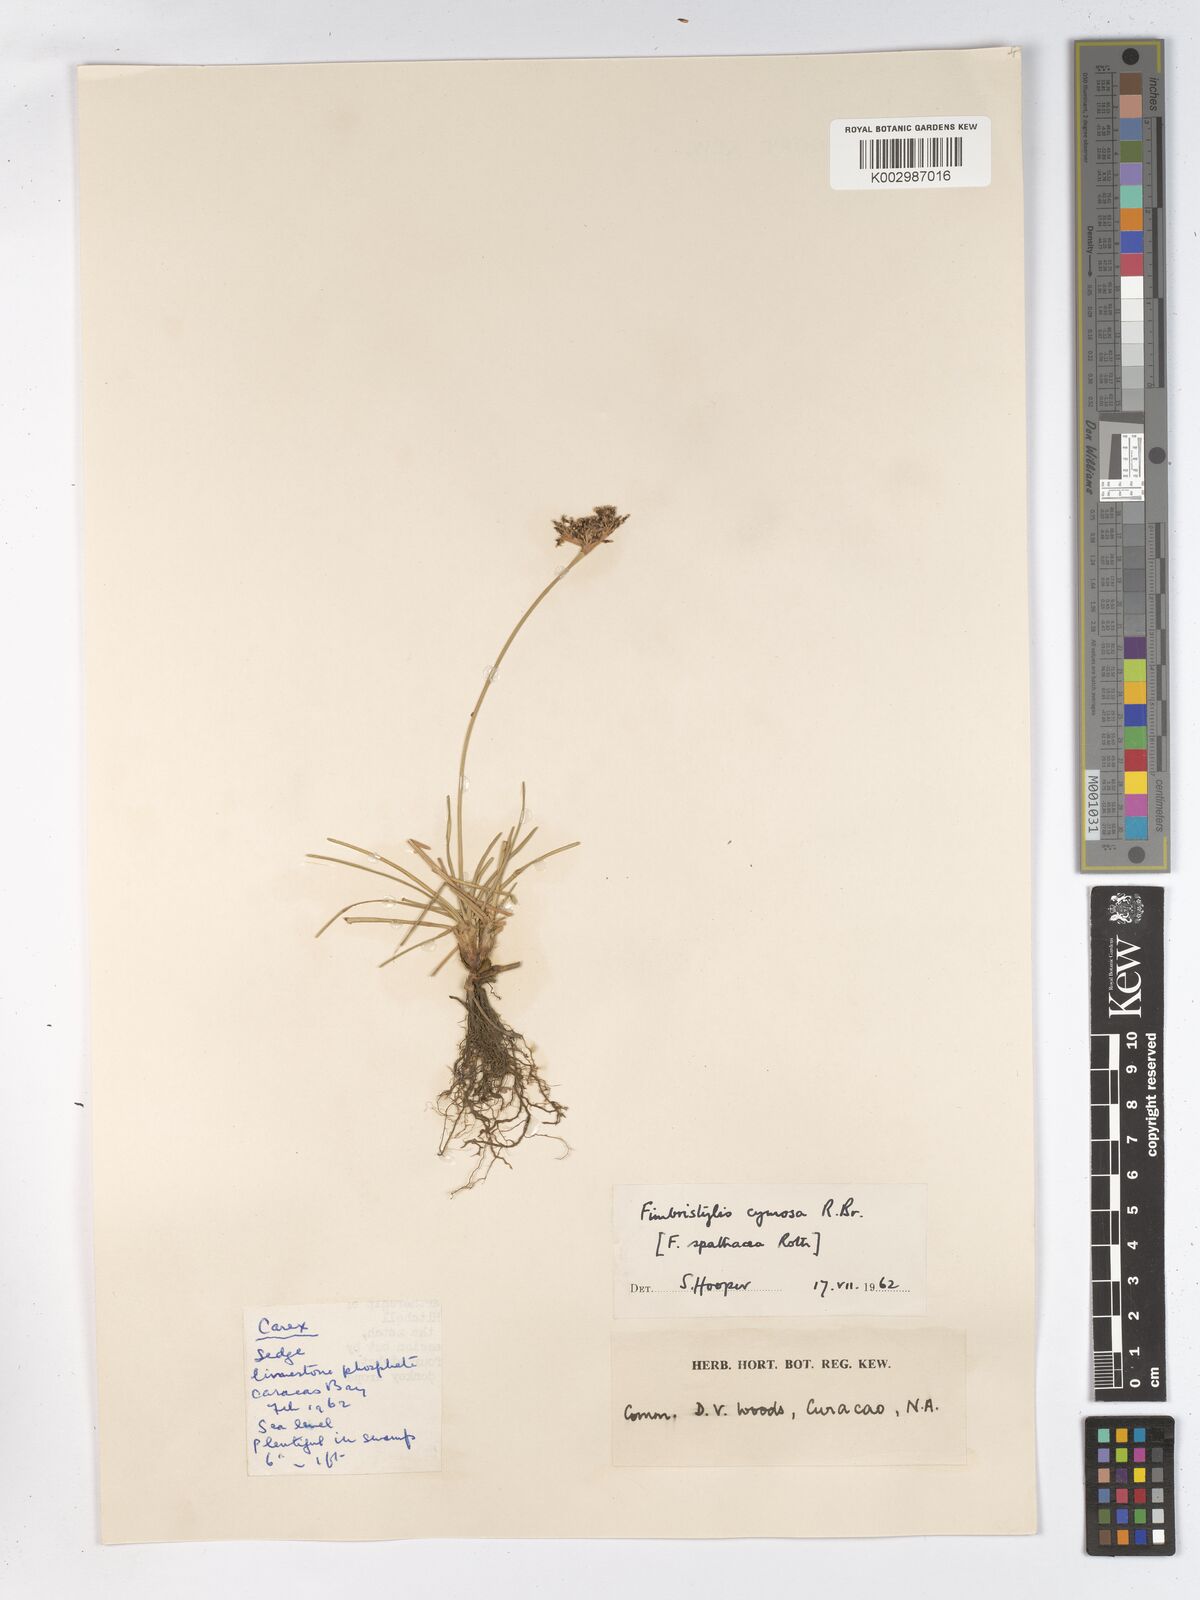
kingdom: Plantae
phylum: Tracheophyta
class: Liliopsida
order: Poales
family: Cyperaceae
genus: Fimbristylis
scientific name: Fimbristylis cymosa
